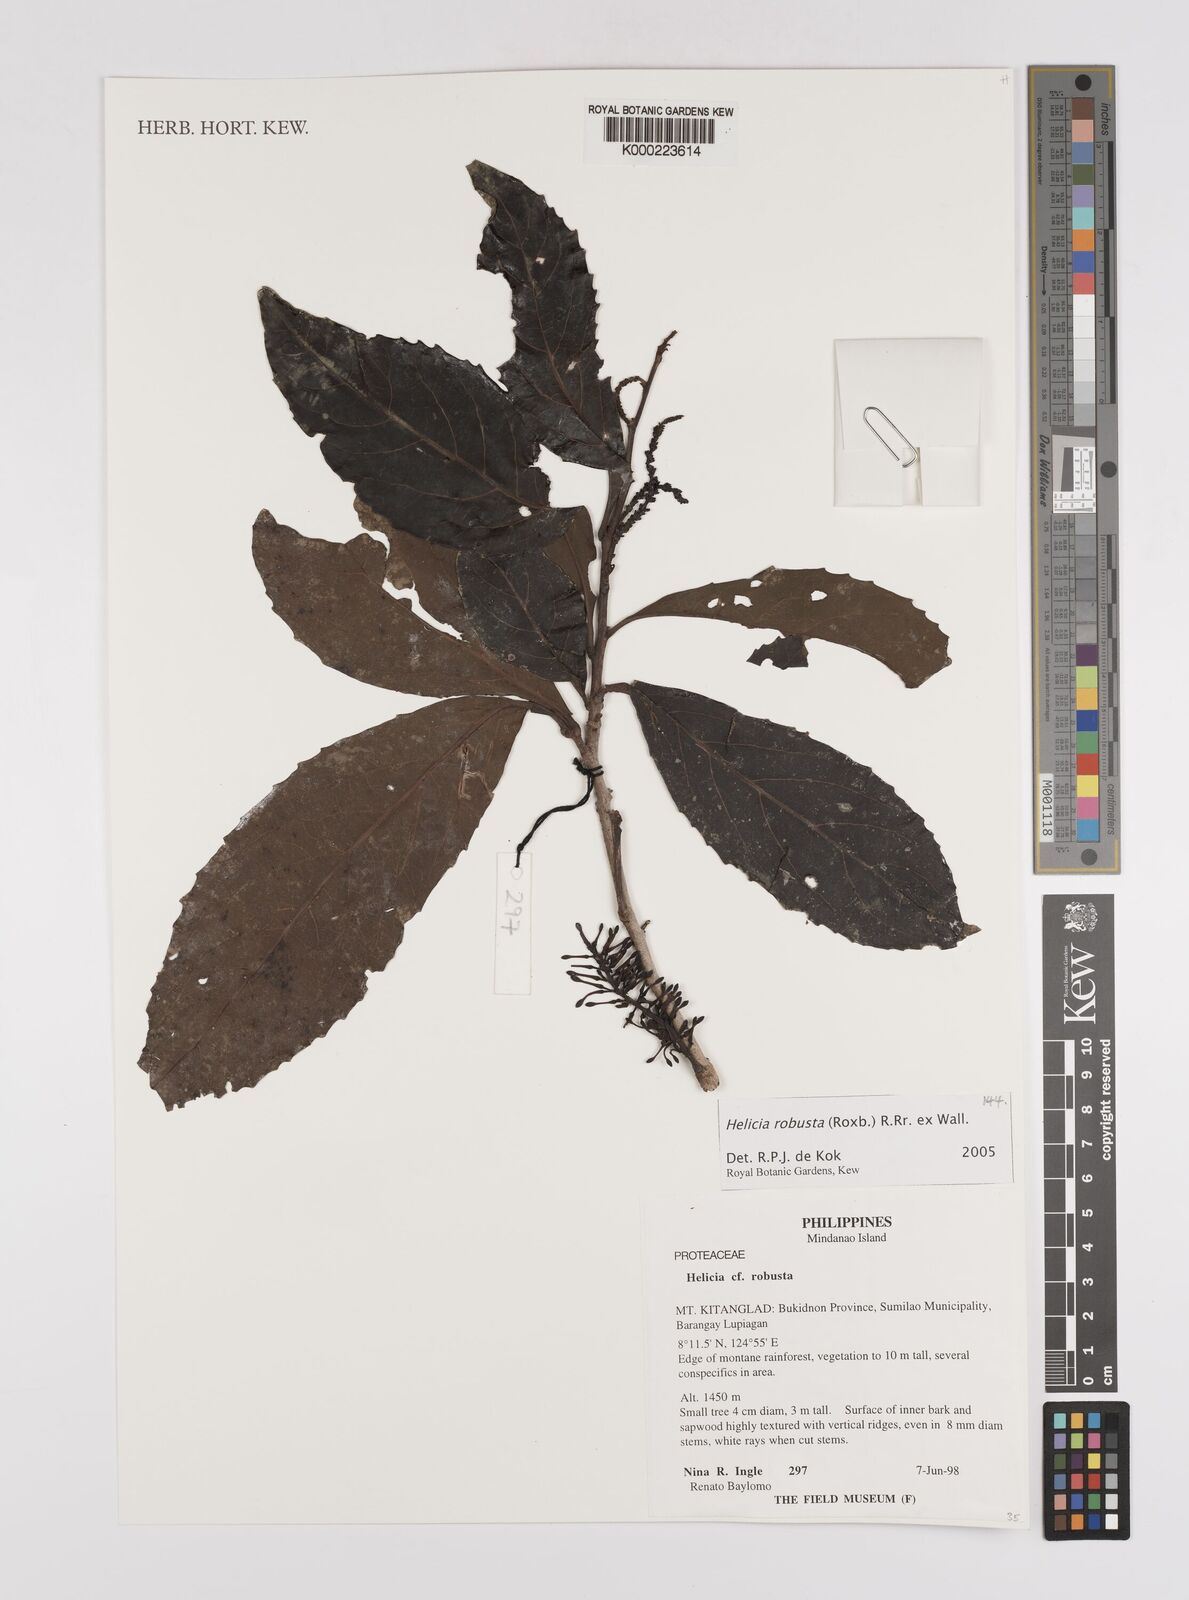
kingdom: Plantae
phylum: Tracheophyta
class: Magnoliopsida
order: Proteales
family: Proteaceae
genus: Helicia
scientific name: Helicia
